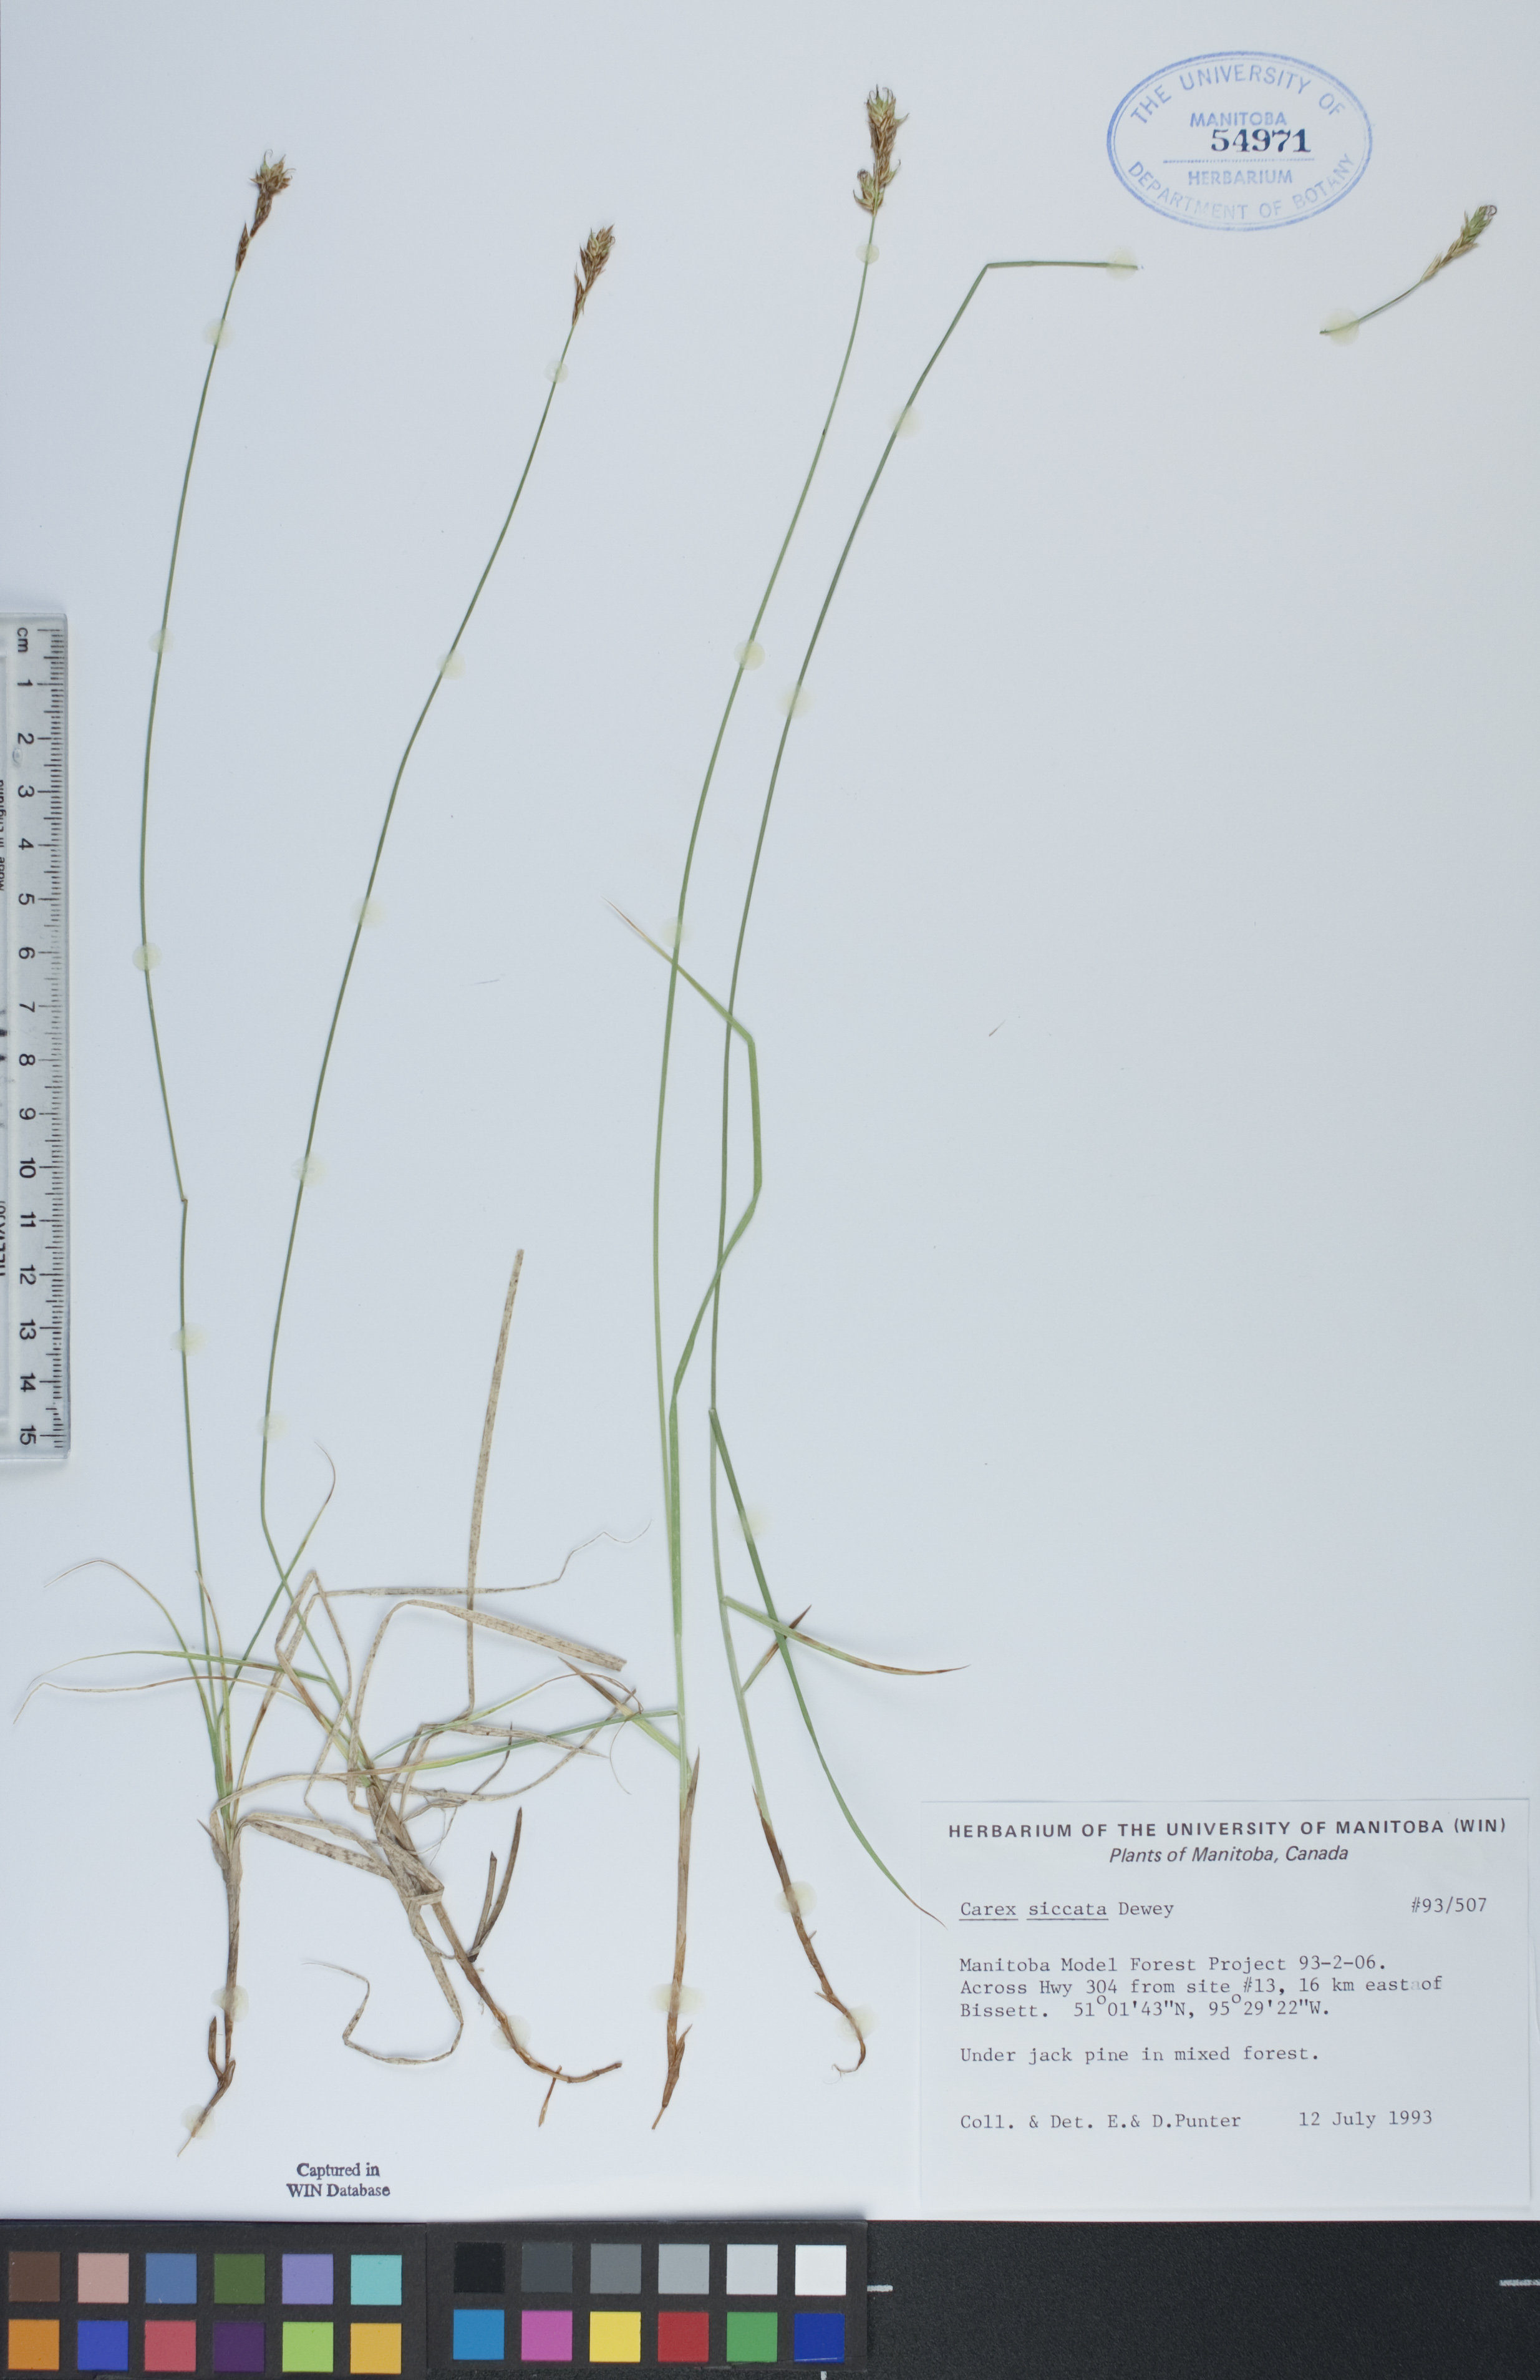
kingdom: Plantae
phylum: Tracheophyta
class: Liliopsida
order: Poales
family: Cyperaceae
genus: Carex
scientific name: Carex siccata
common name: Dry sedge
